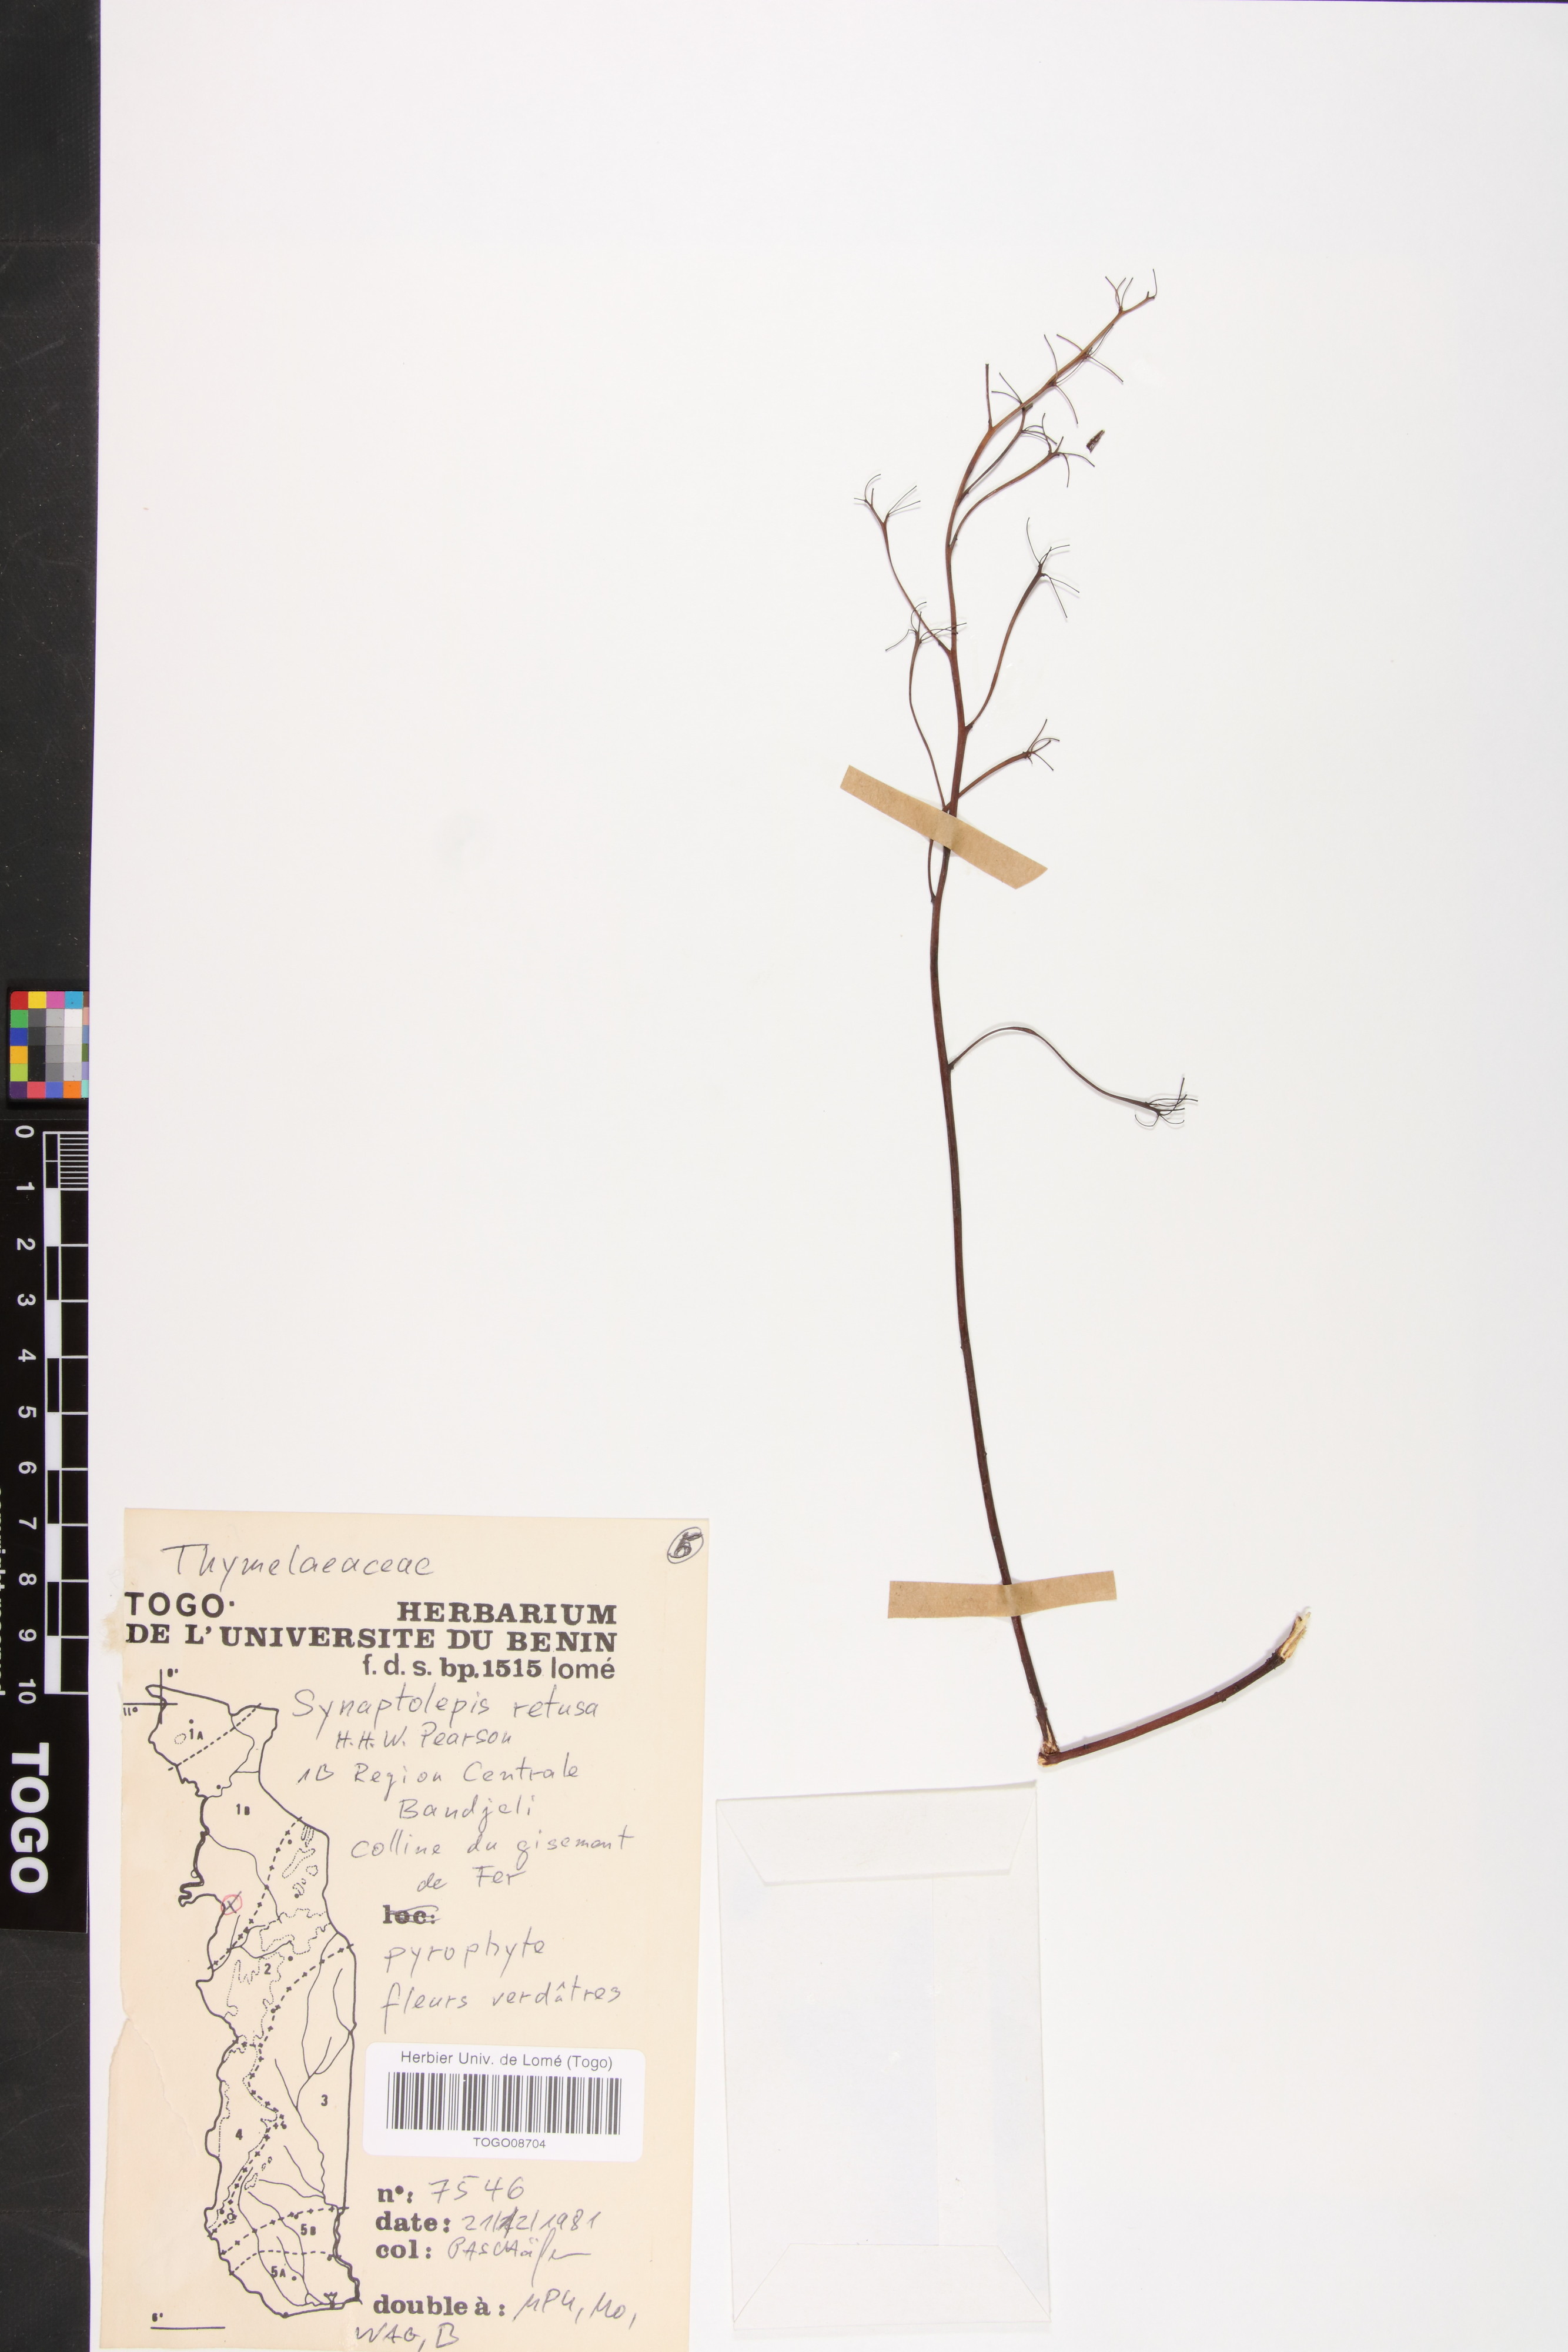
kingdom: Plantae
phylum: Tracheophyta
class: Magnoliopsida
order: Malvales
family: Thymelaeaceae
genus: Synaptolepis
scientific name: Synaptolepis retusa
